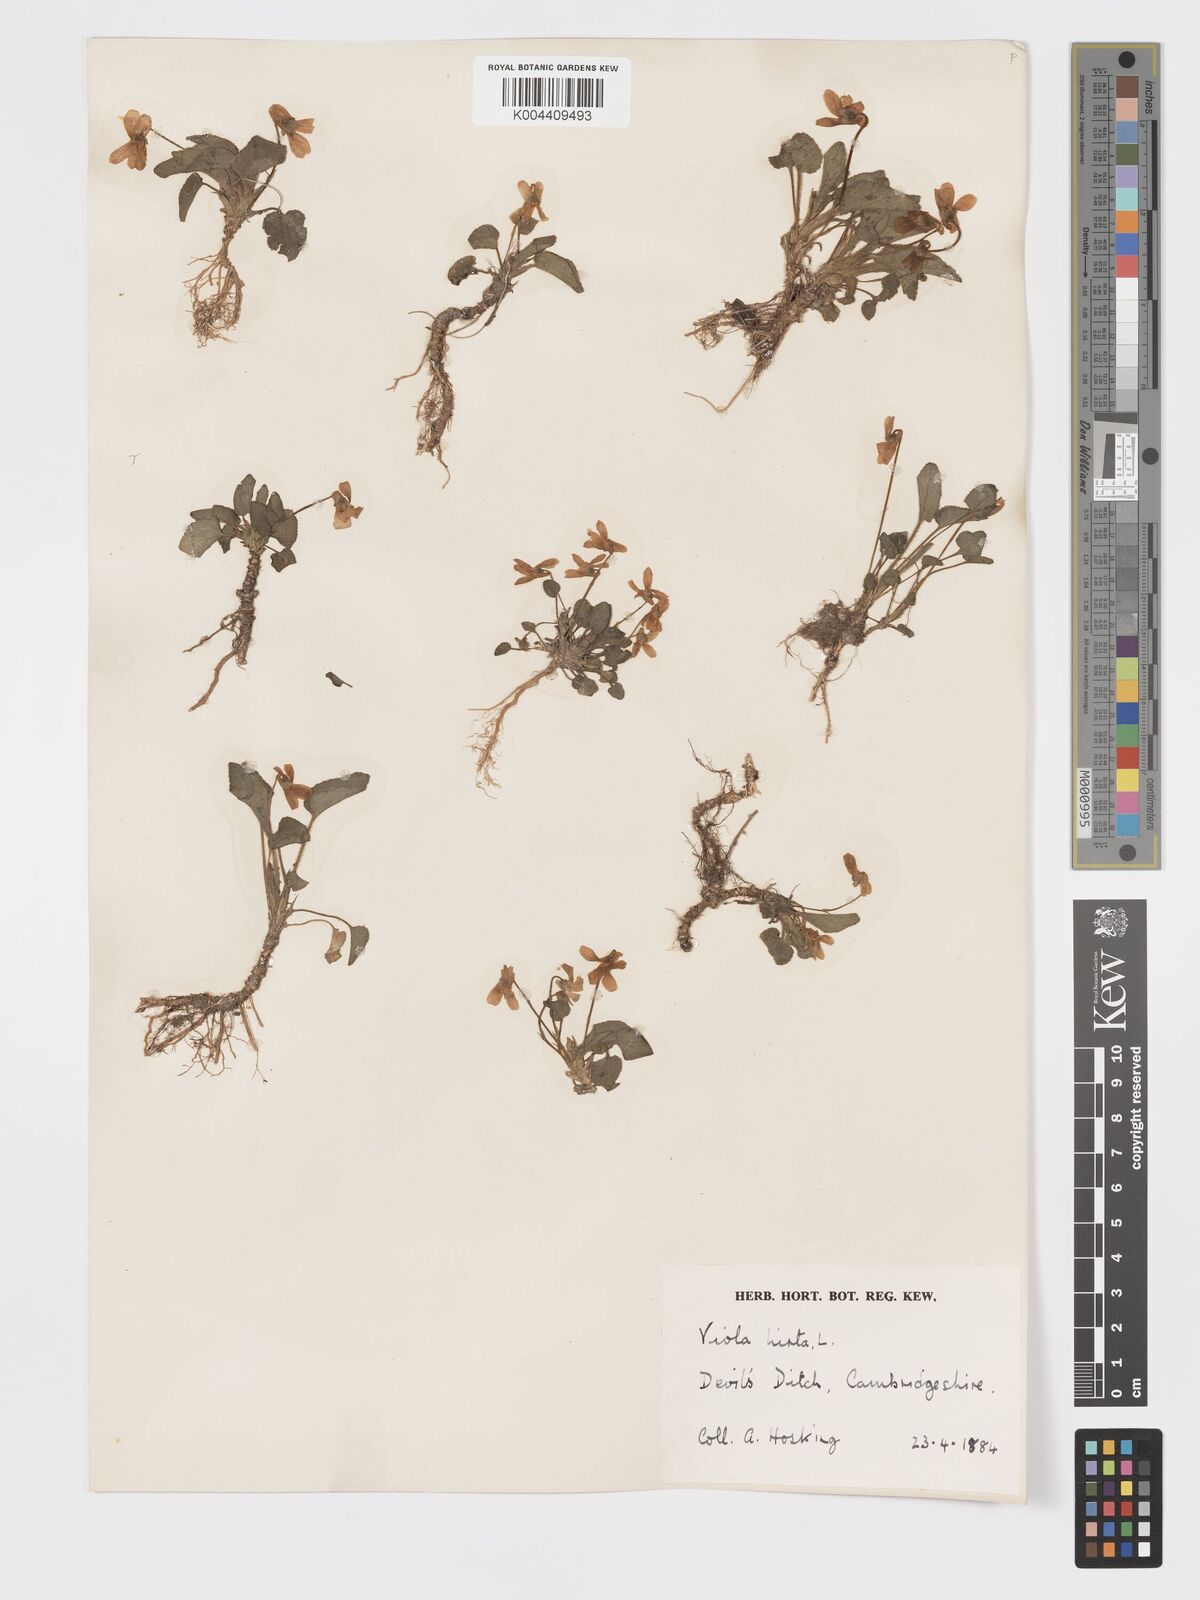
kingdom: Plantae
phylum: Tracheophyta
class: Magnoliopsida
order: Malpighiales
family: Violaceae
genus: Viola
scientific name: Viola
